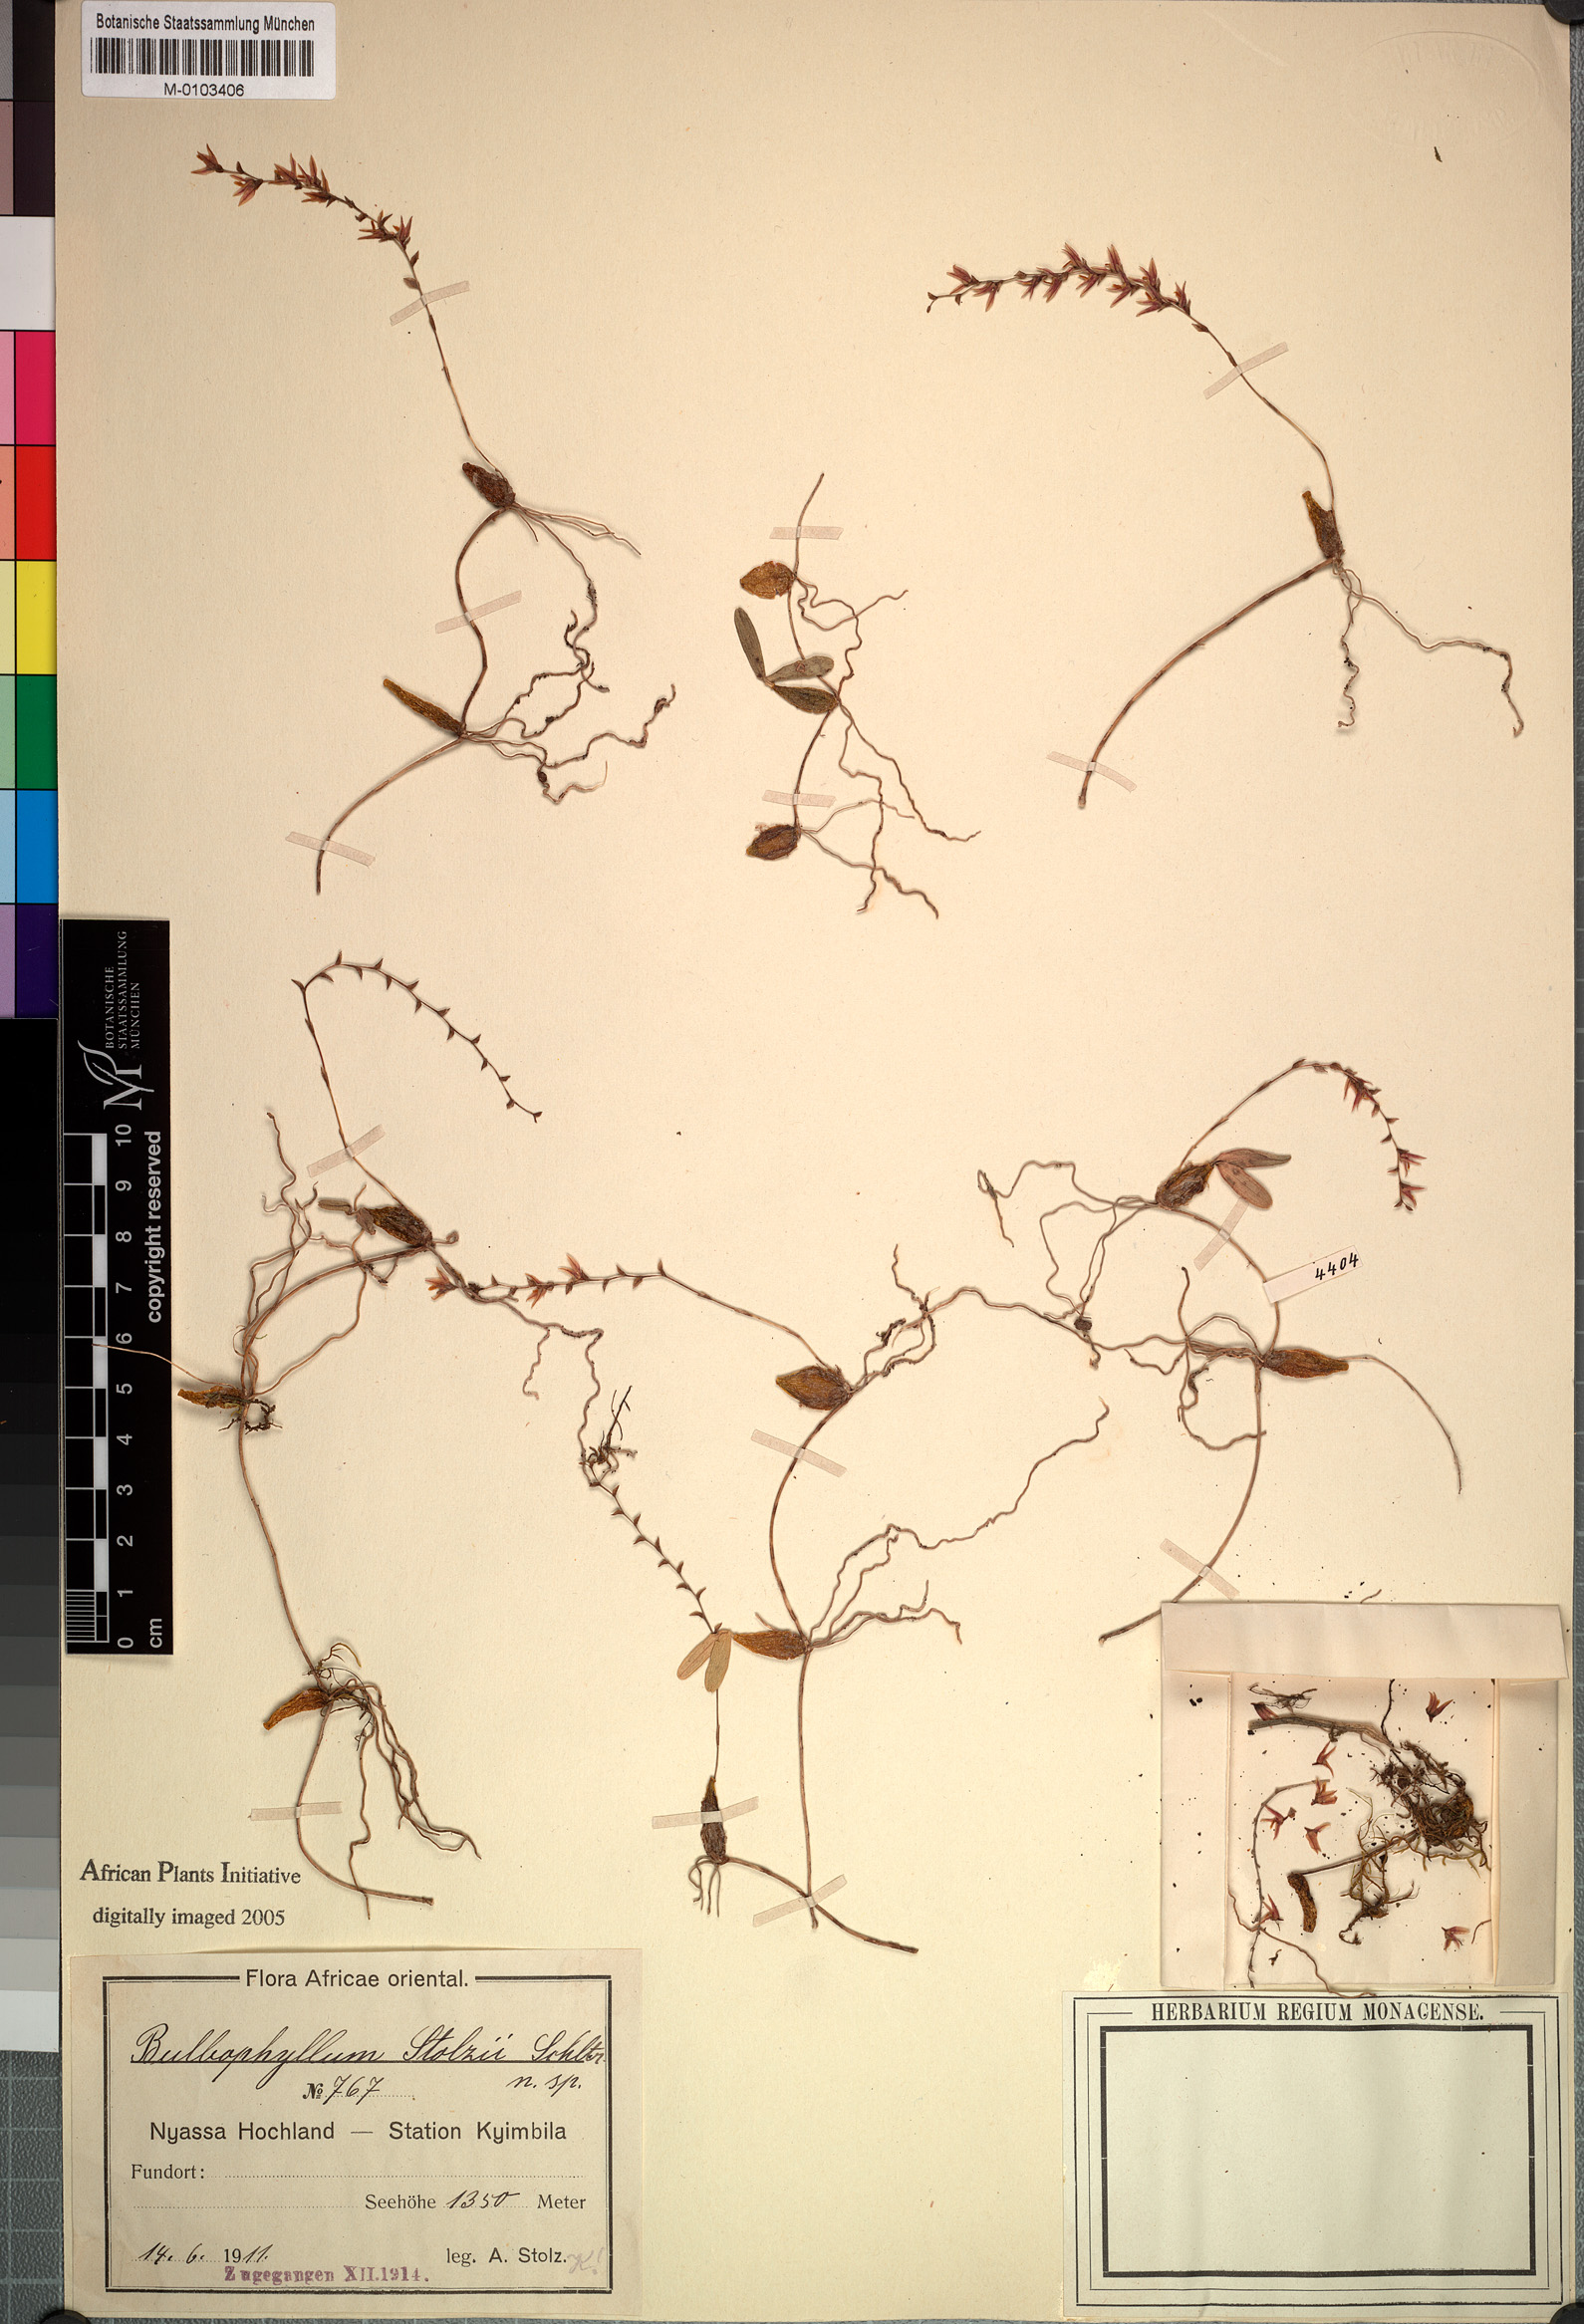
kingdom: Plantae
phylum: Tracheophyta
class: Liliopsida
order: Asparagales
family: Orchidaceae
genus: Bulbophyllum
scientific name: Bulbophyllum stolzii
